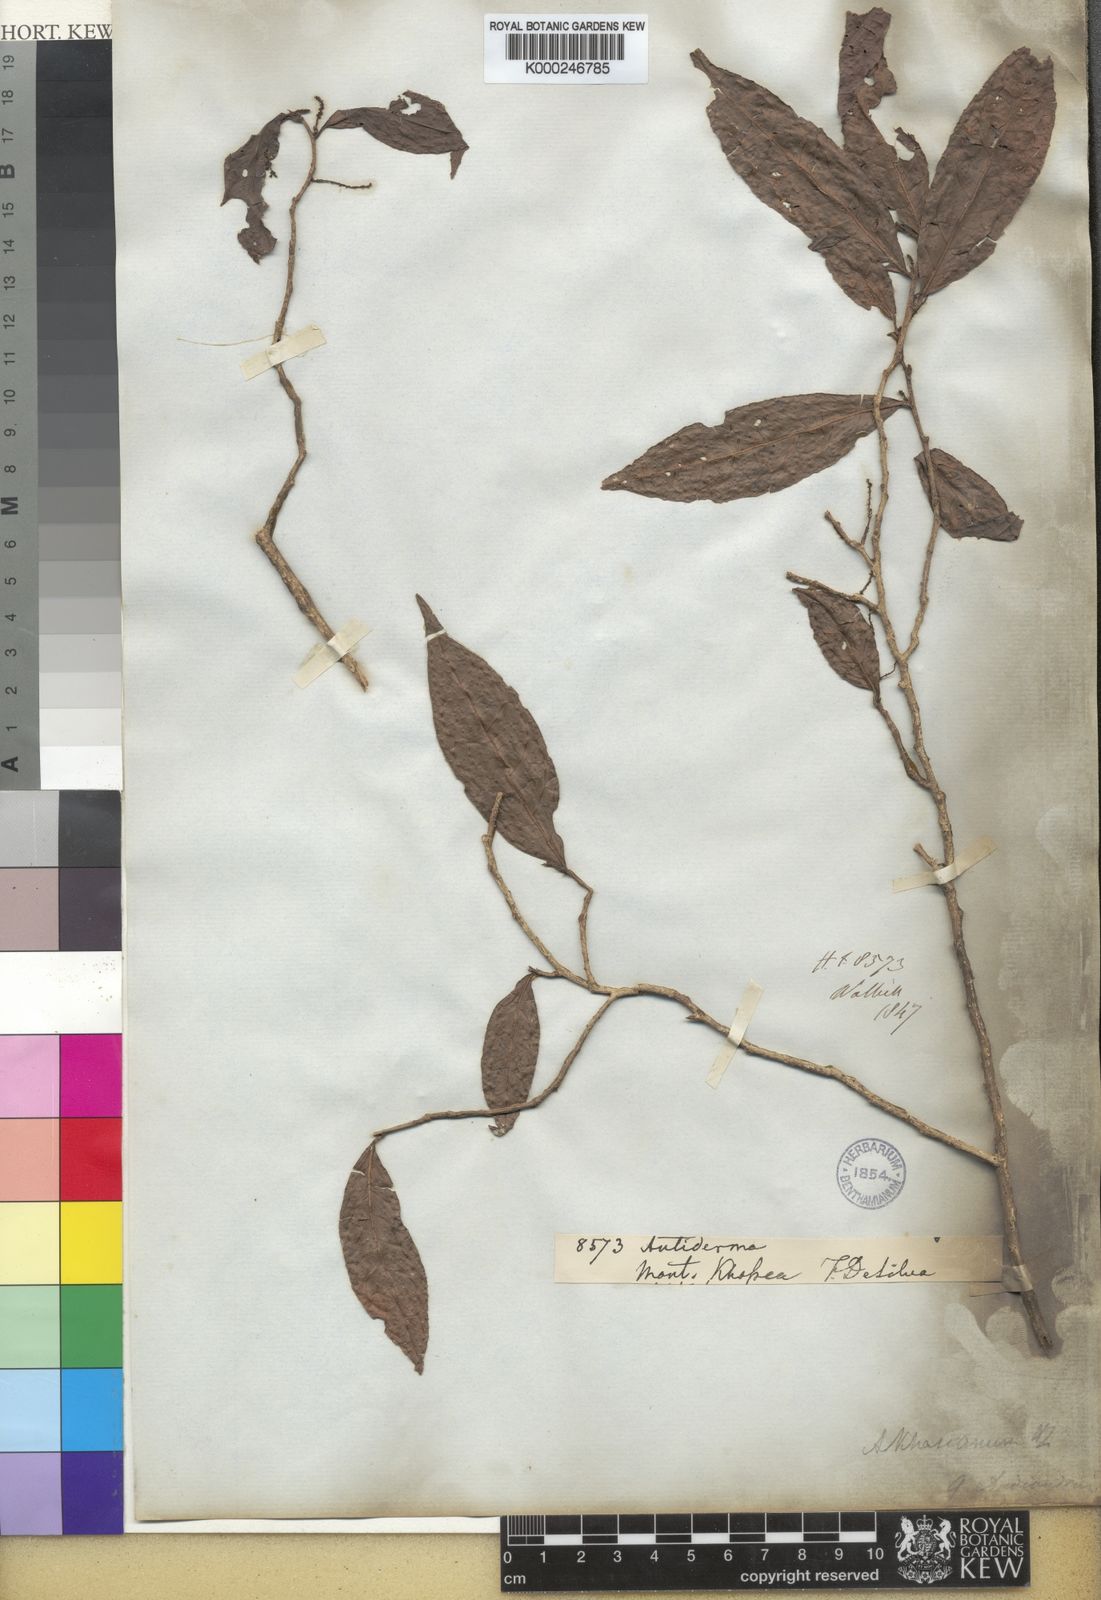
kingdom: Plantae
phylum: Tracheophyta
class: Magnoliopsida
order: Malpighiales
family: Phyllanthaceae
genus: Antidesma
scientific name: Antidesma khasianum
